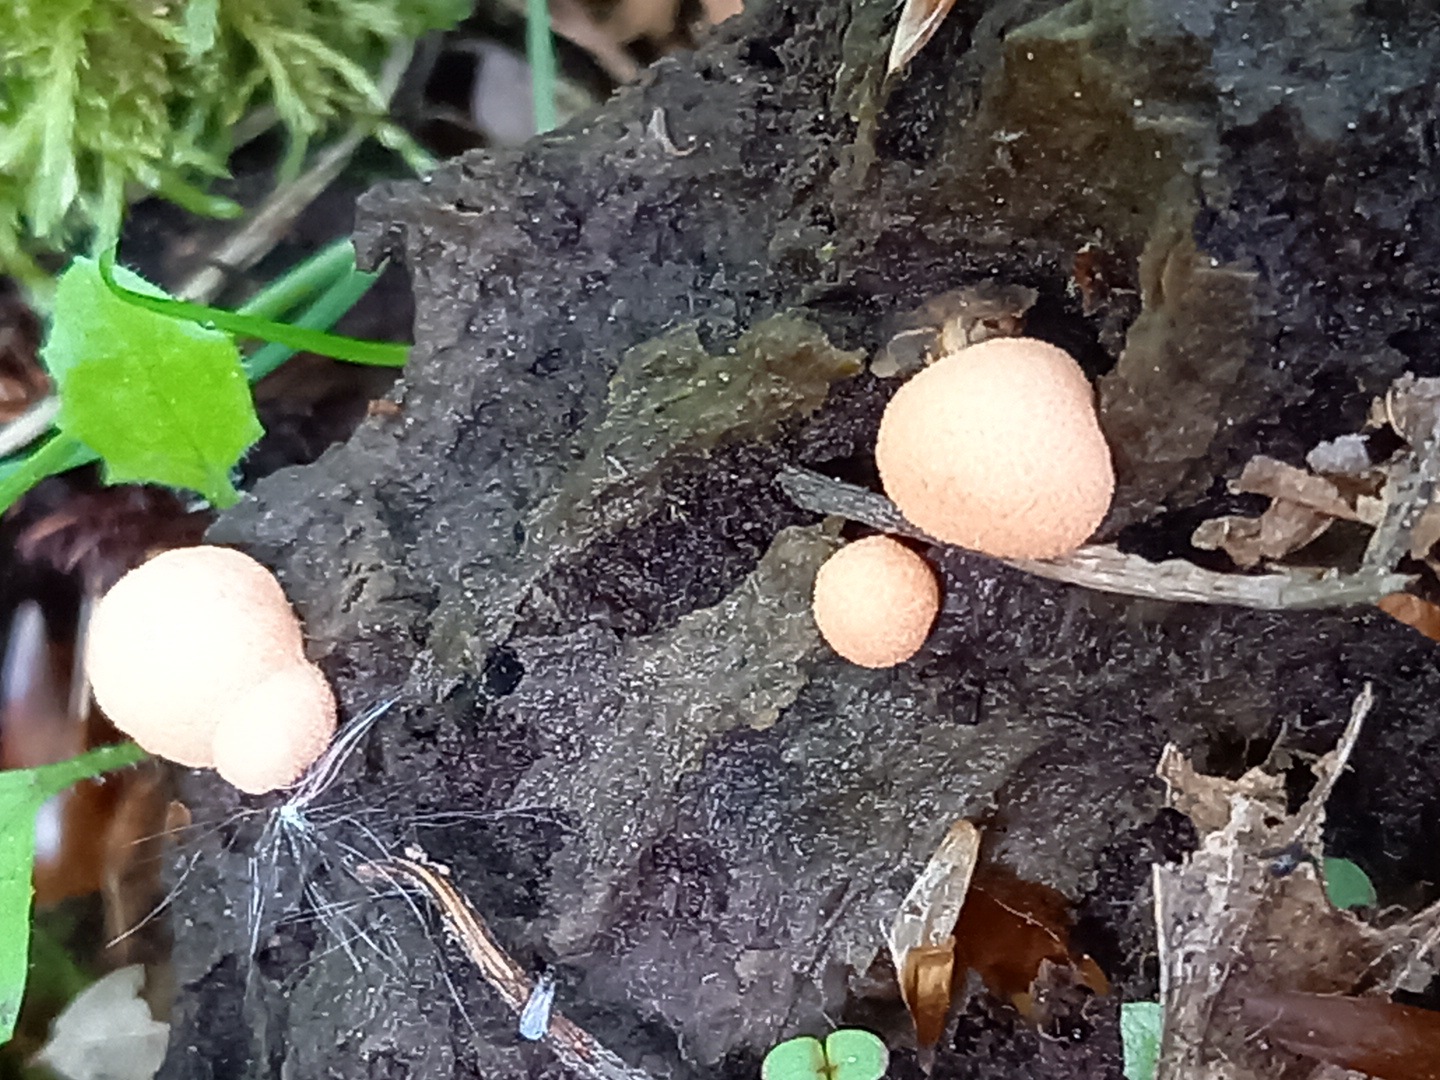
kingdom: Protozoa
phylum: Mycetozoa
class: Myxomycetes
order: Cribrariales
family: Tubiferaceae
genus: Lycogala
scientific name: Lycogala epidendrum
